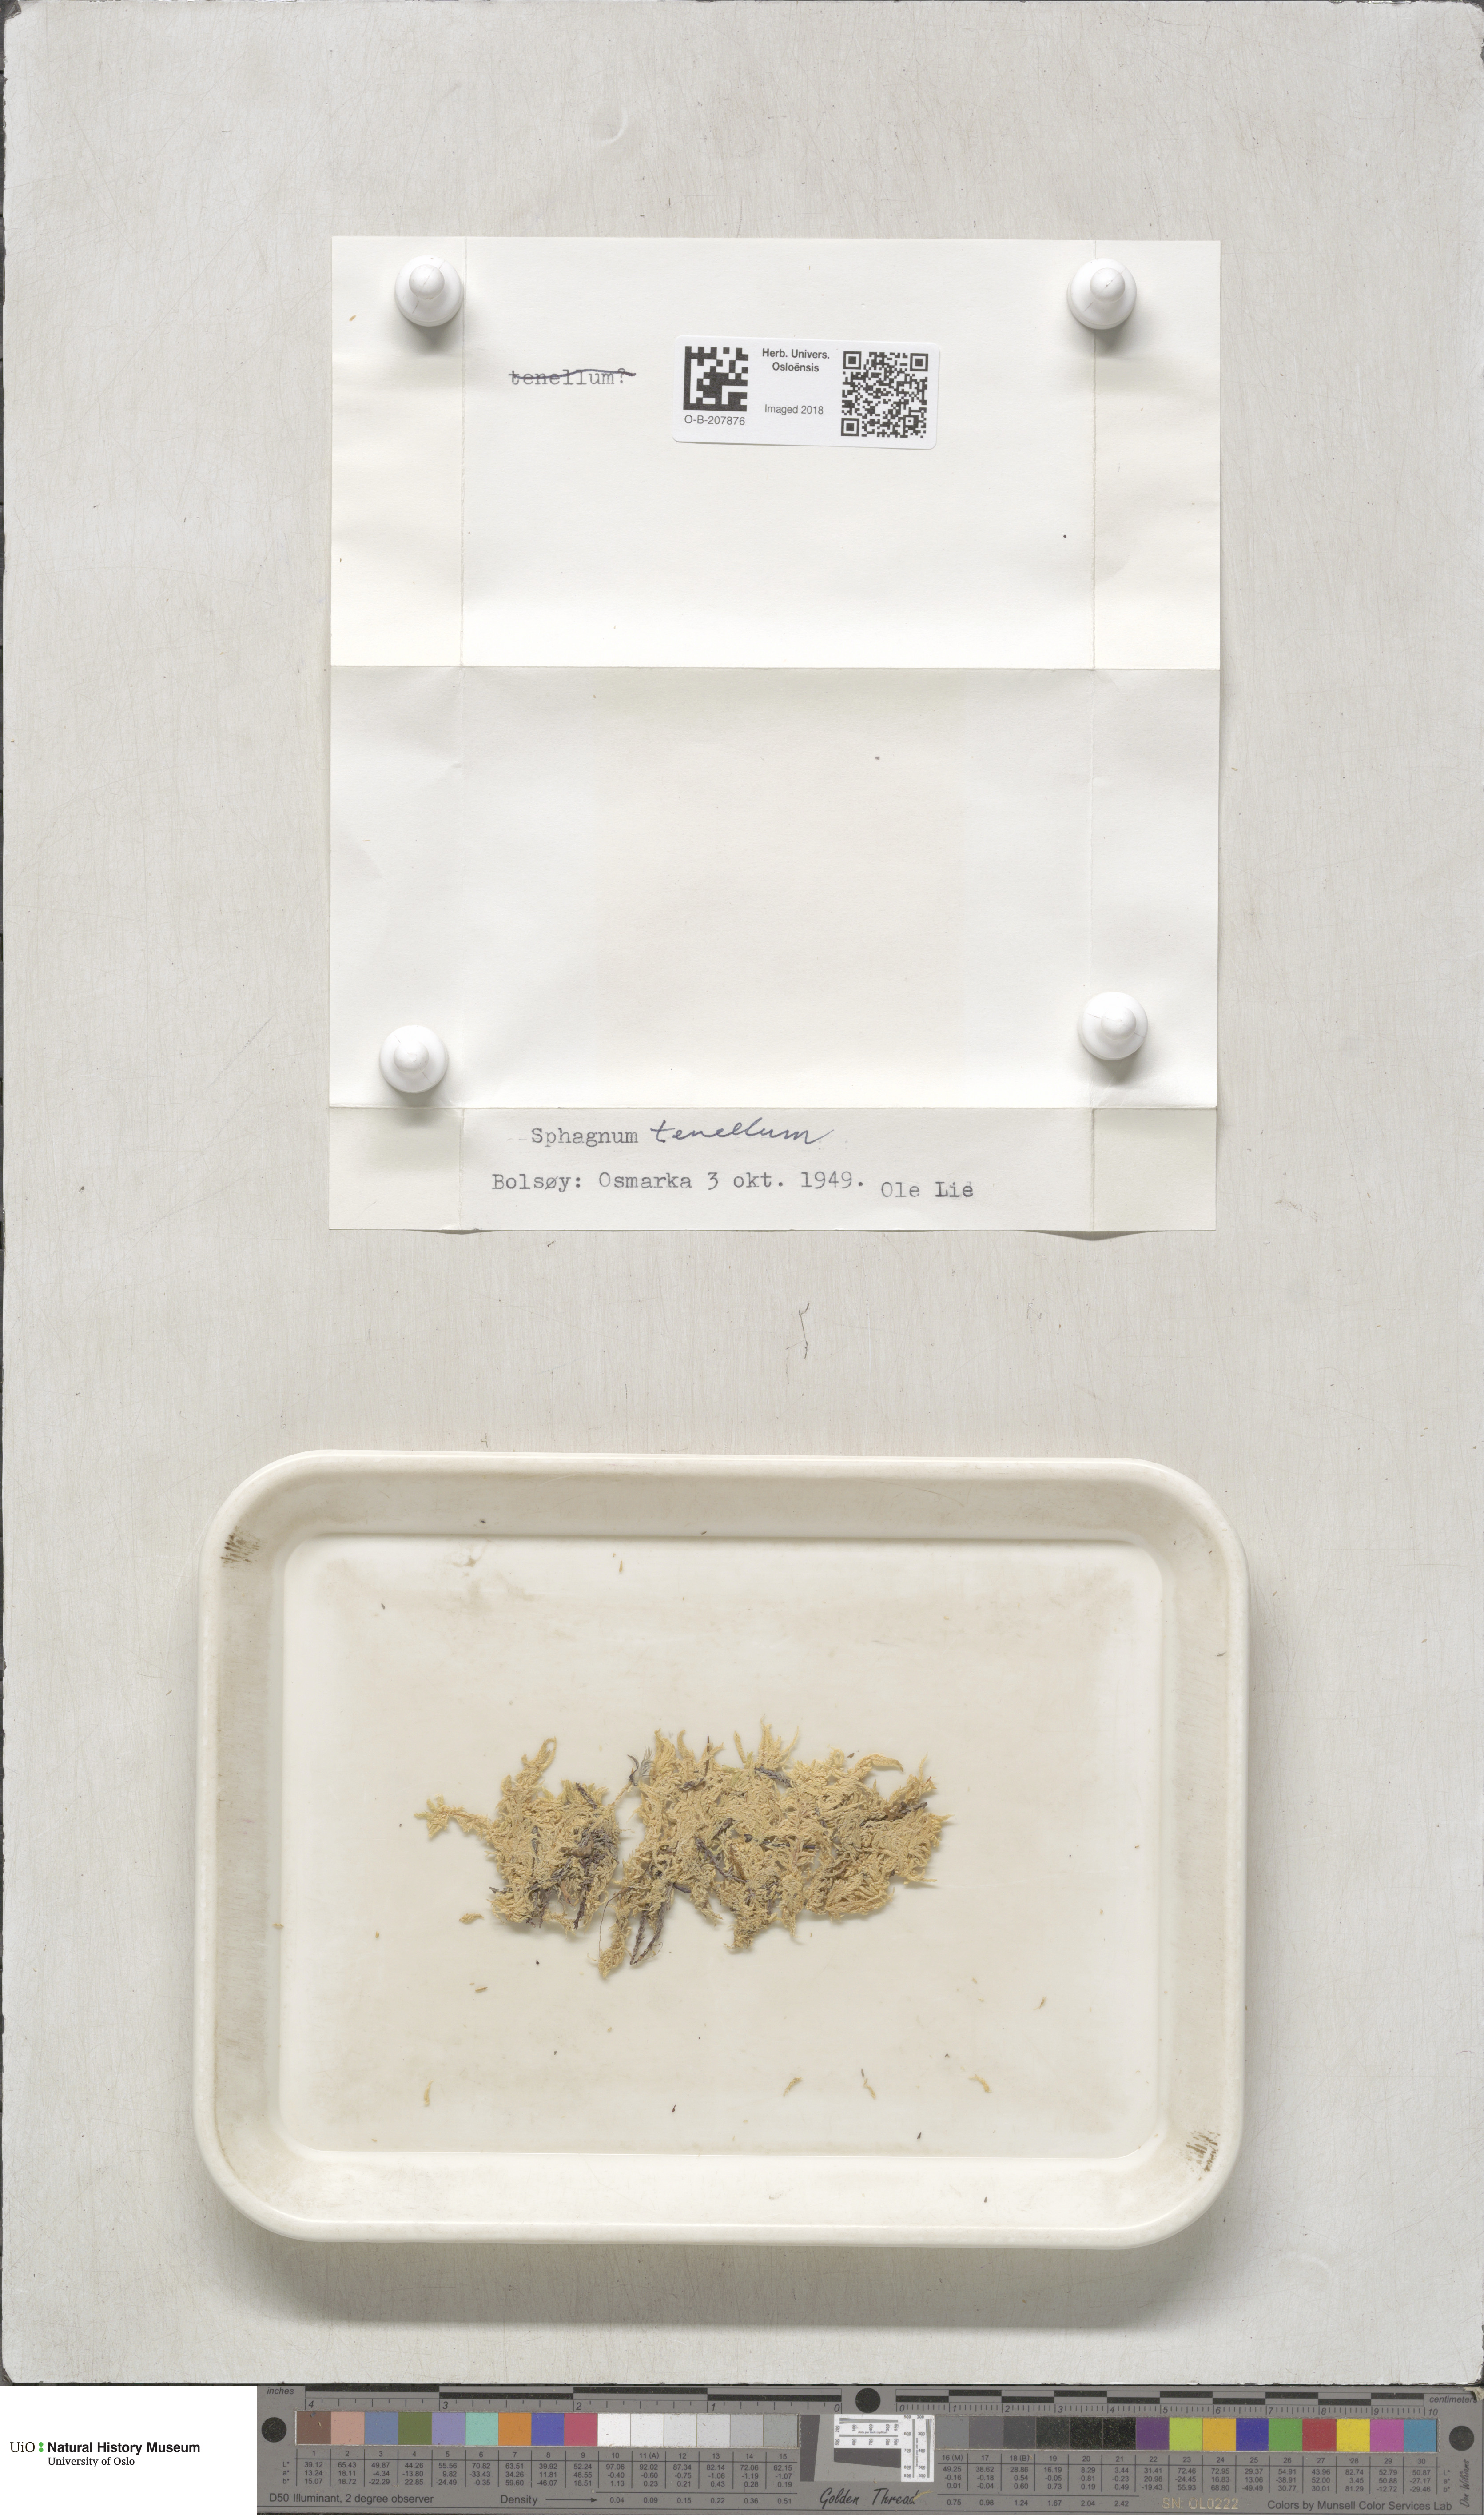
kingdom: Plantae
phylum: Bryophyta
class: Sphagnopsida
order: Sphagnales
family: Sphagnaceae
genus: Sphagnum
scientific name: Sphagnum tenellum
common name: Soft bog-moss
